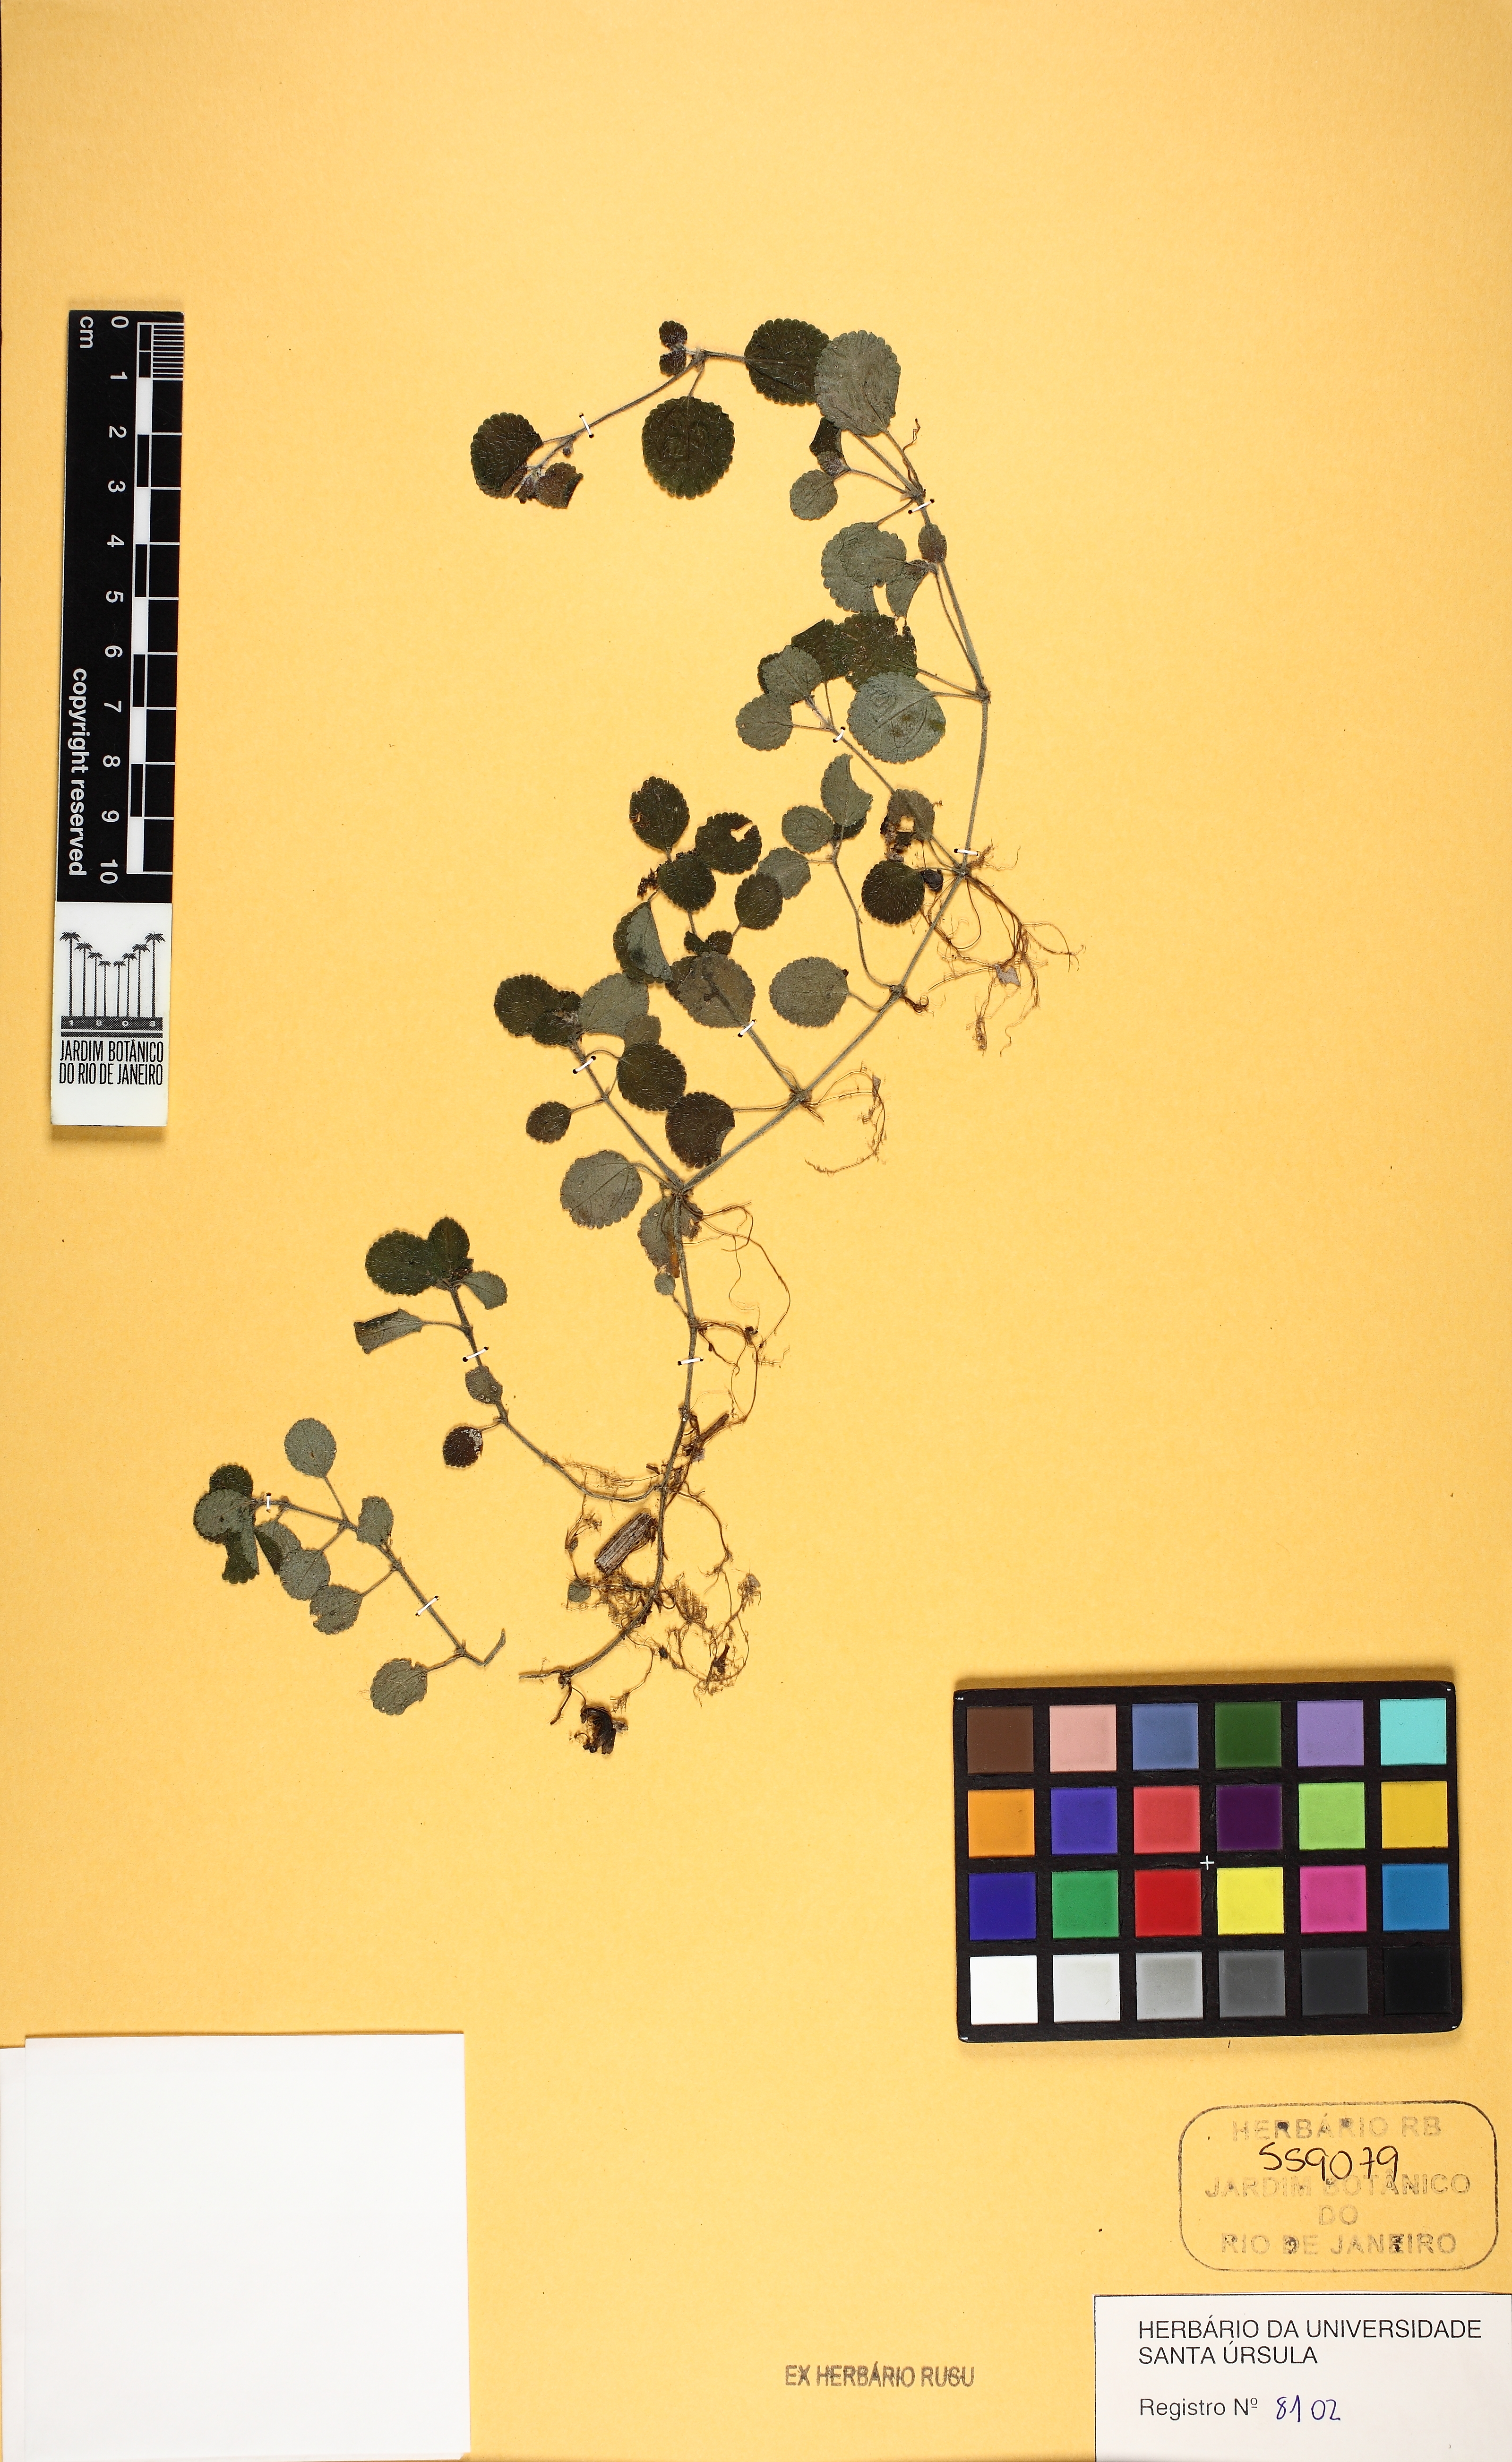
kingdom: Plantae
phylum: Tracheophyta
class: Magnoliopsida
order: Rosales
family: Urticaceae
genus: Pilea
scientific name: Pilea nummulariifolia
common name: Creeping-charlie
